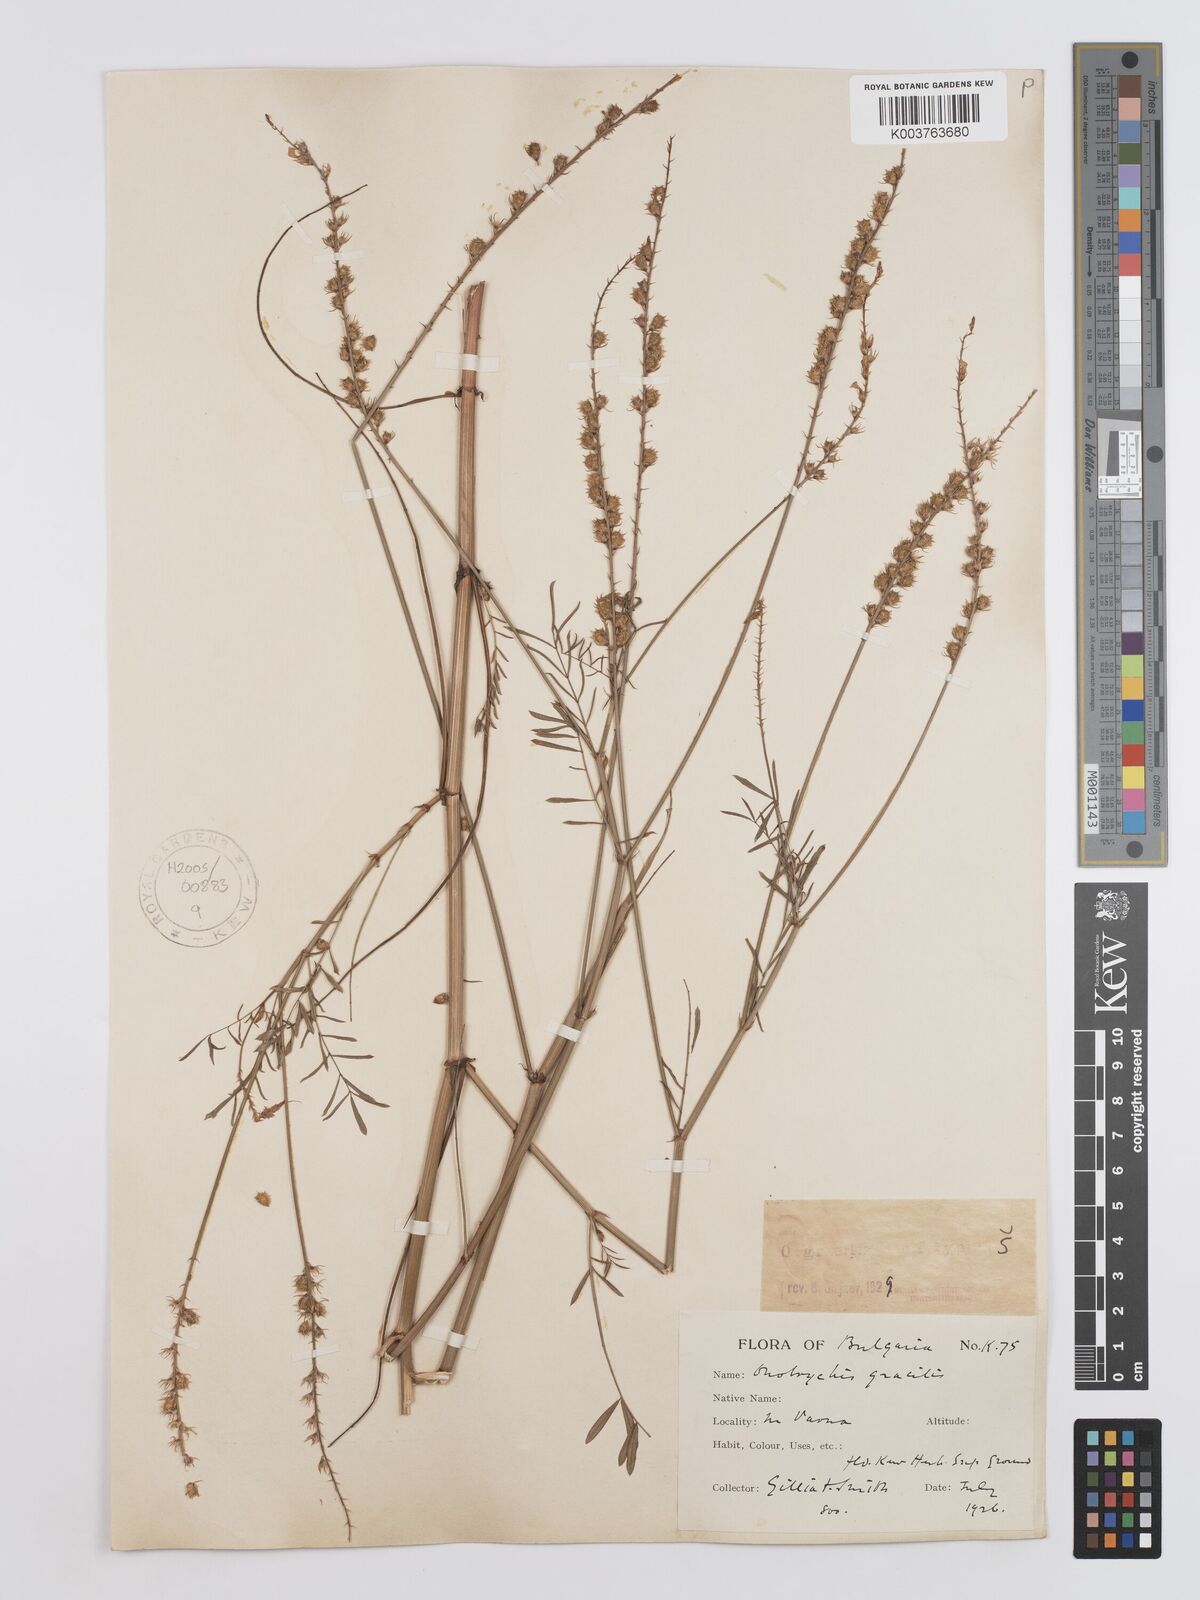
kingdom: Plantae
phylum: Tracheophyta
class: Magnoliopsida
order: Fabales
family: Fabaceae
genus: Onobrychis
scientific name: Onobrychis gracilis
